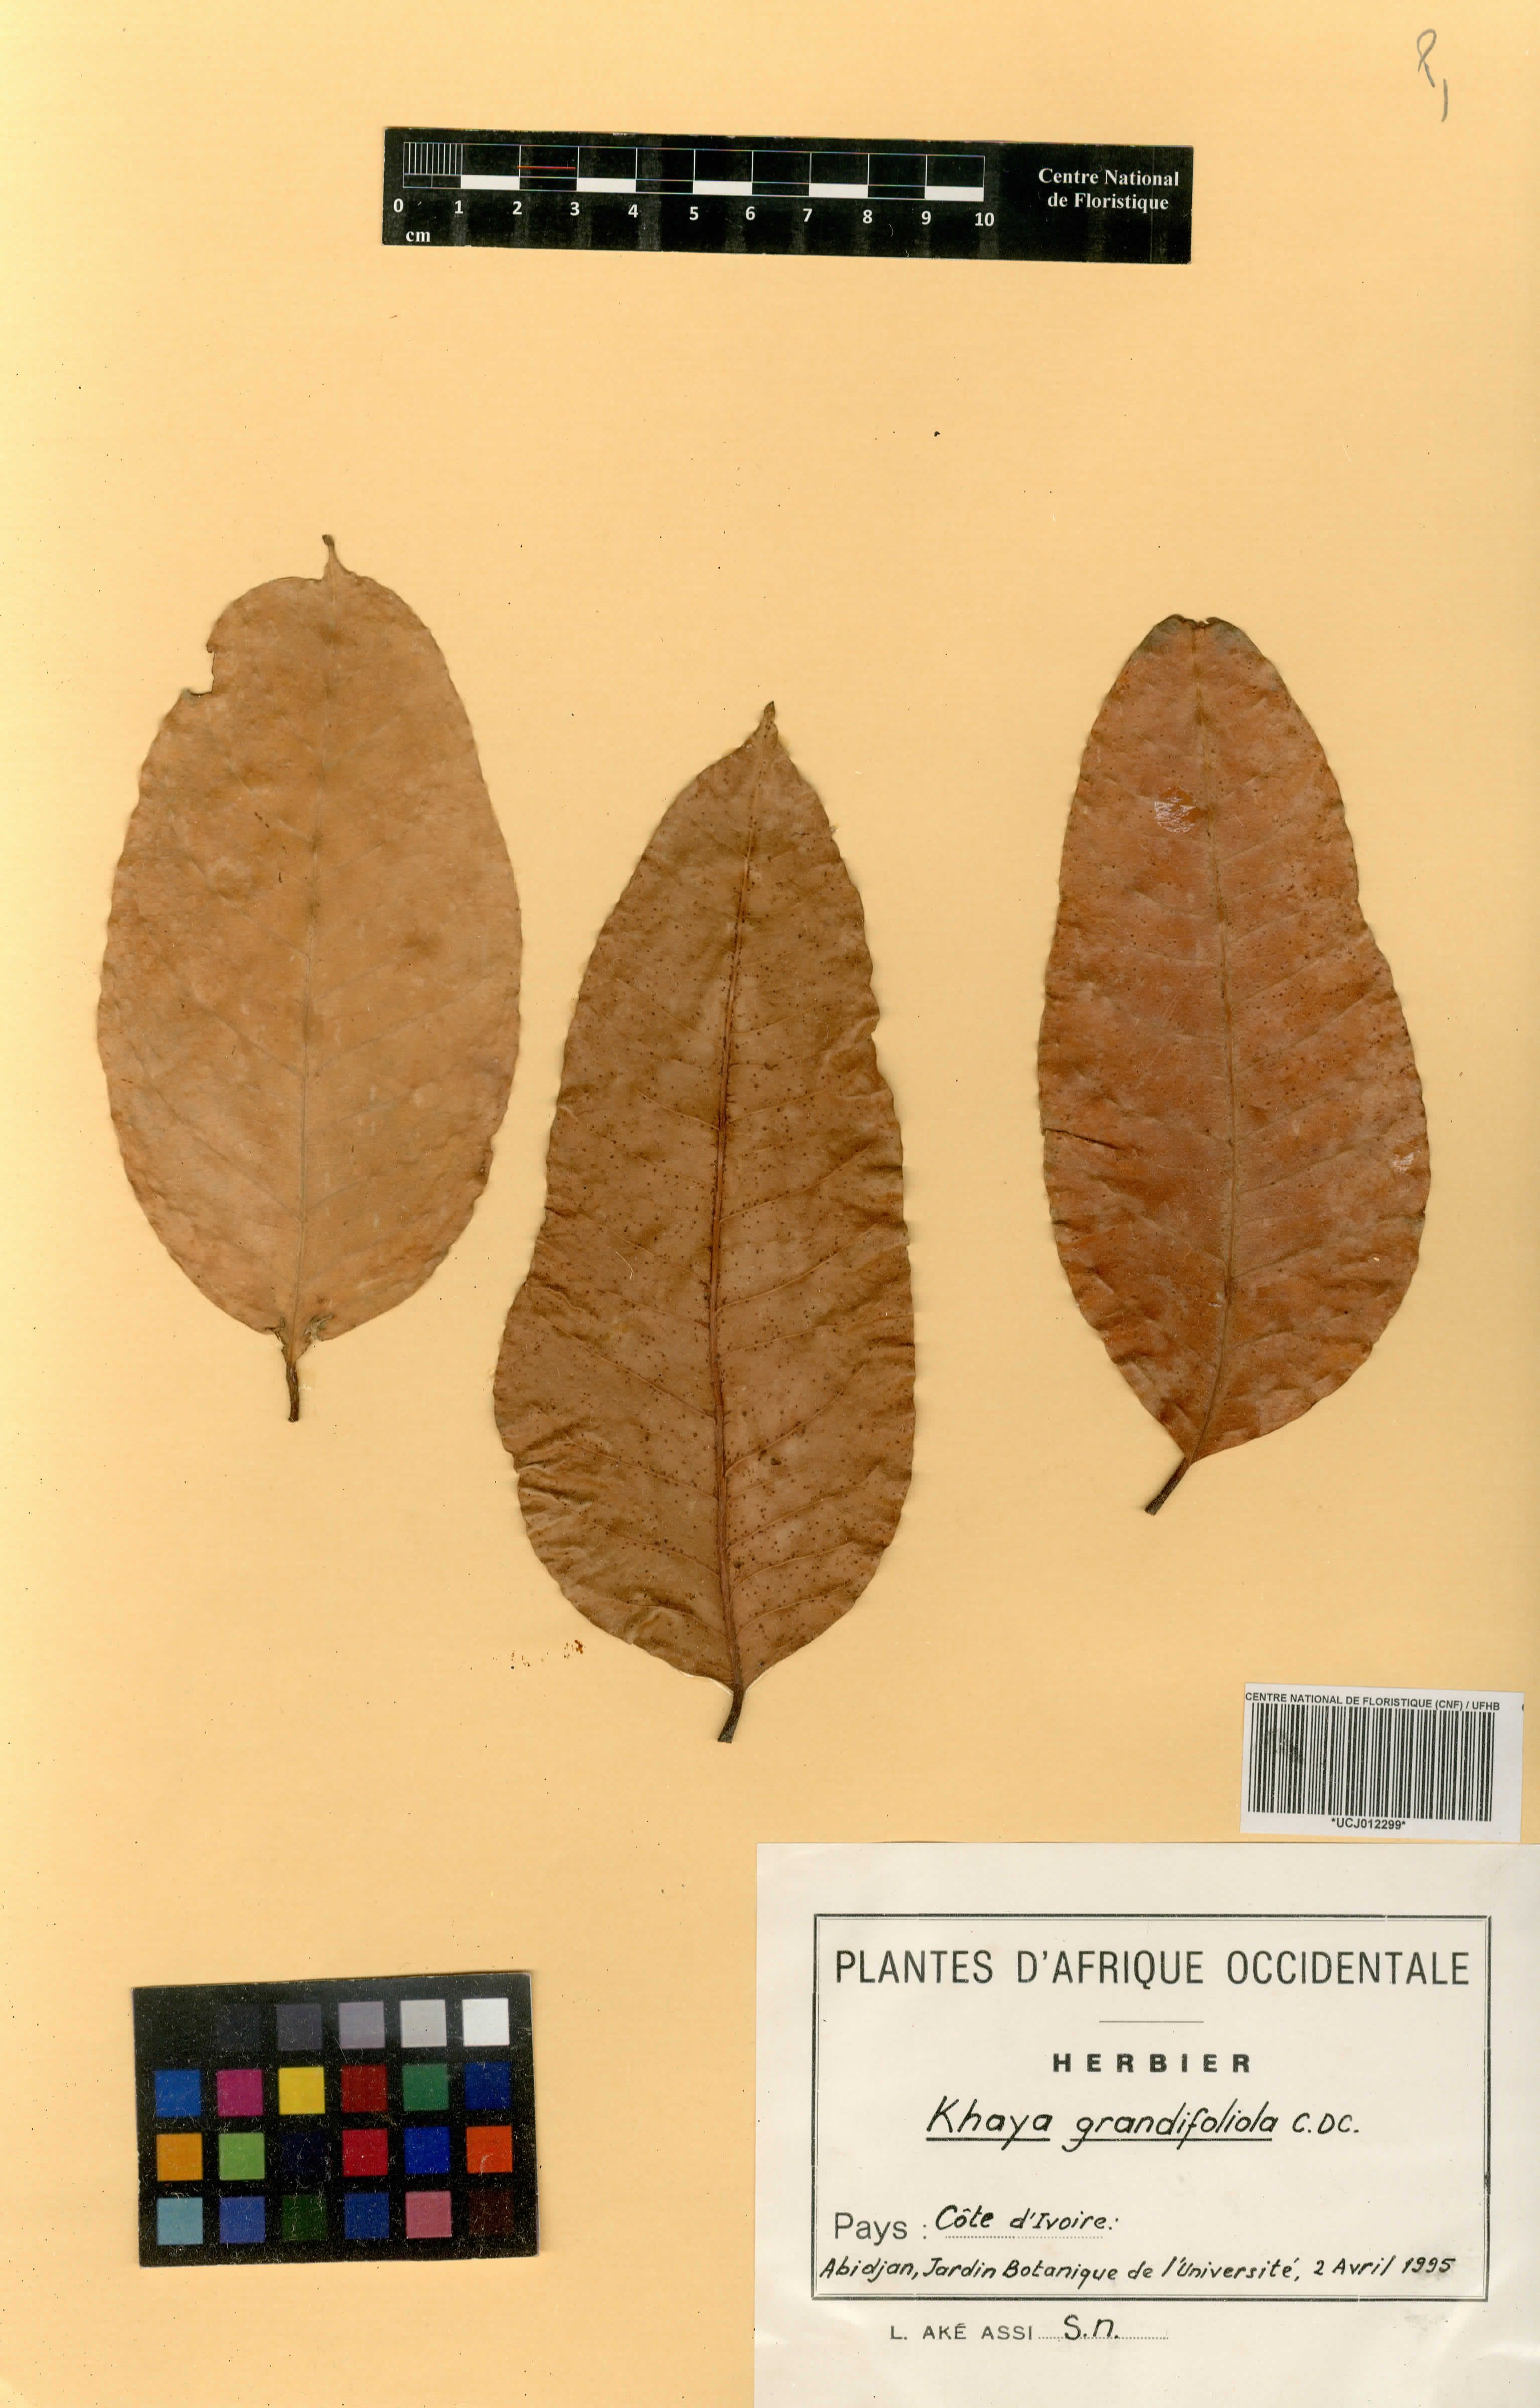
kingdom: Plantae
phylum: Tracheophyta
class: Magnoliopsida
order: Sapindales
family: Meliaceae
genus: Khaya
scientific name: Khaya grandifoliola
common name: African mahogany
